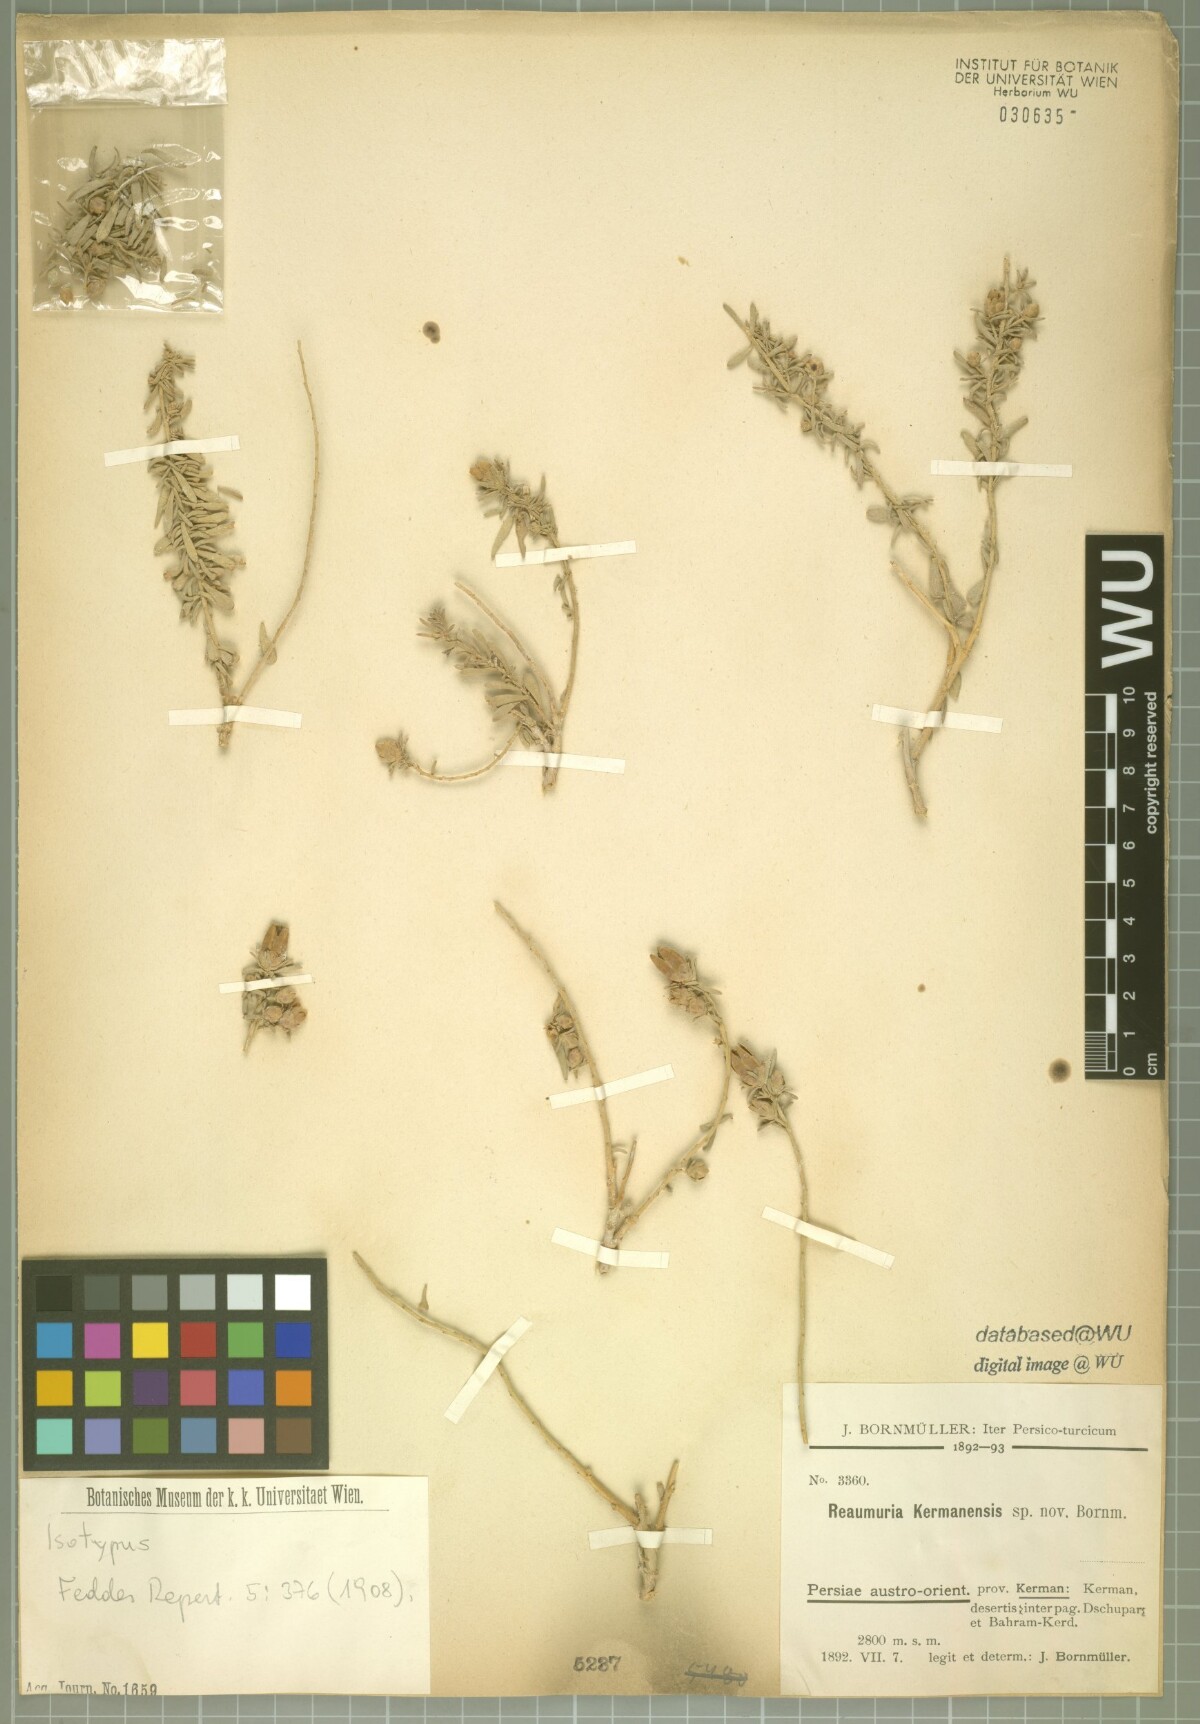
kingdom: Plantae
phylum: Tracheophyta
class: Magnoliopsida
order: Caryophyllales
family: Tamaricaceae
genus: Reaumuria
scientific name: Reaumuria kermanensis
